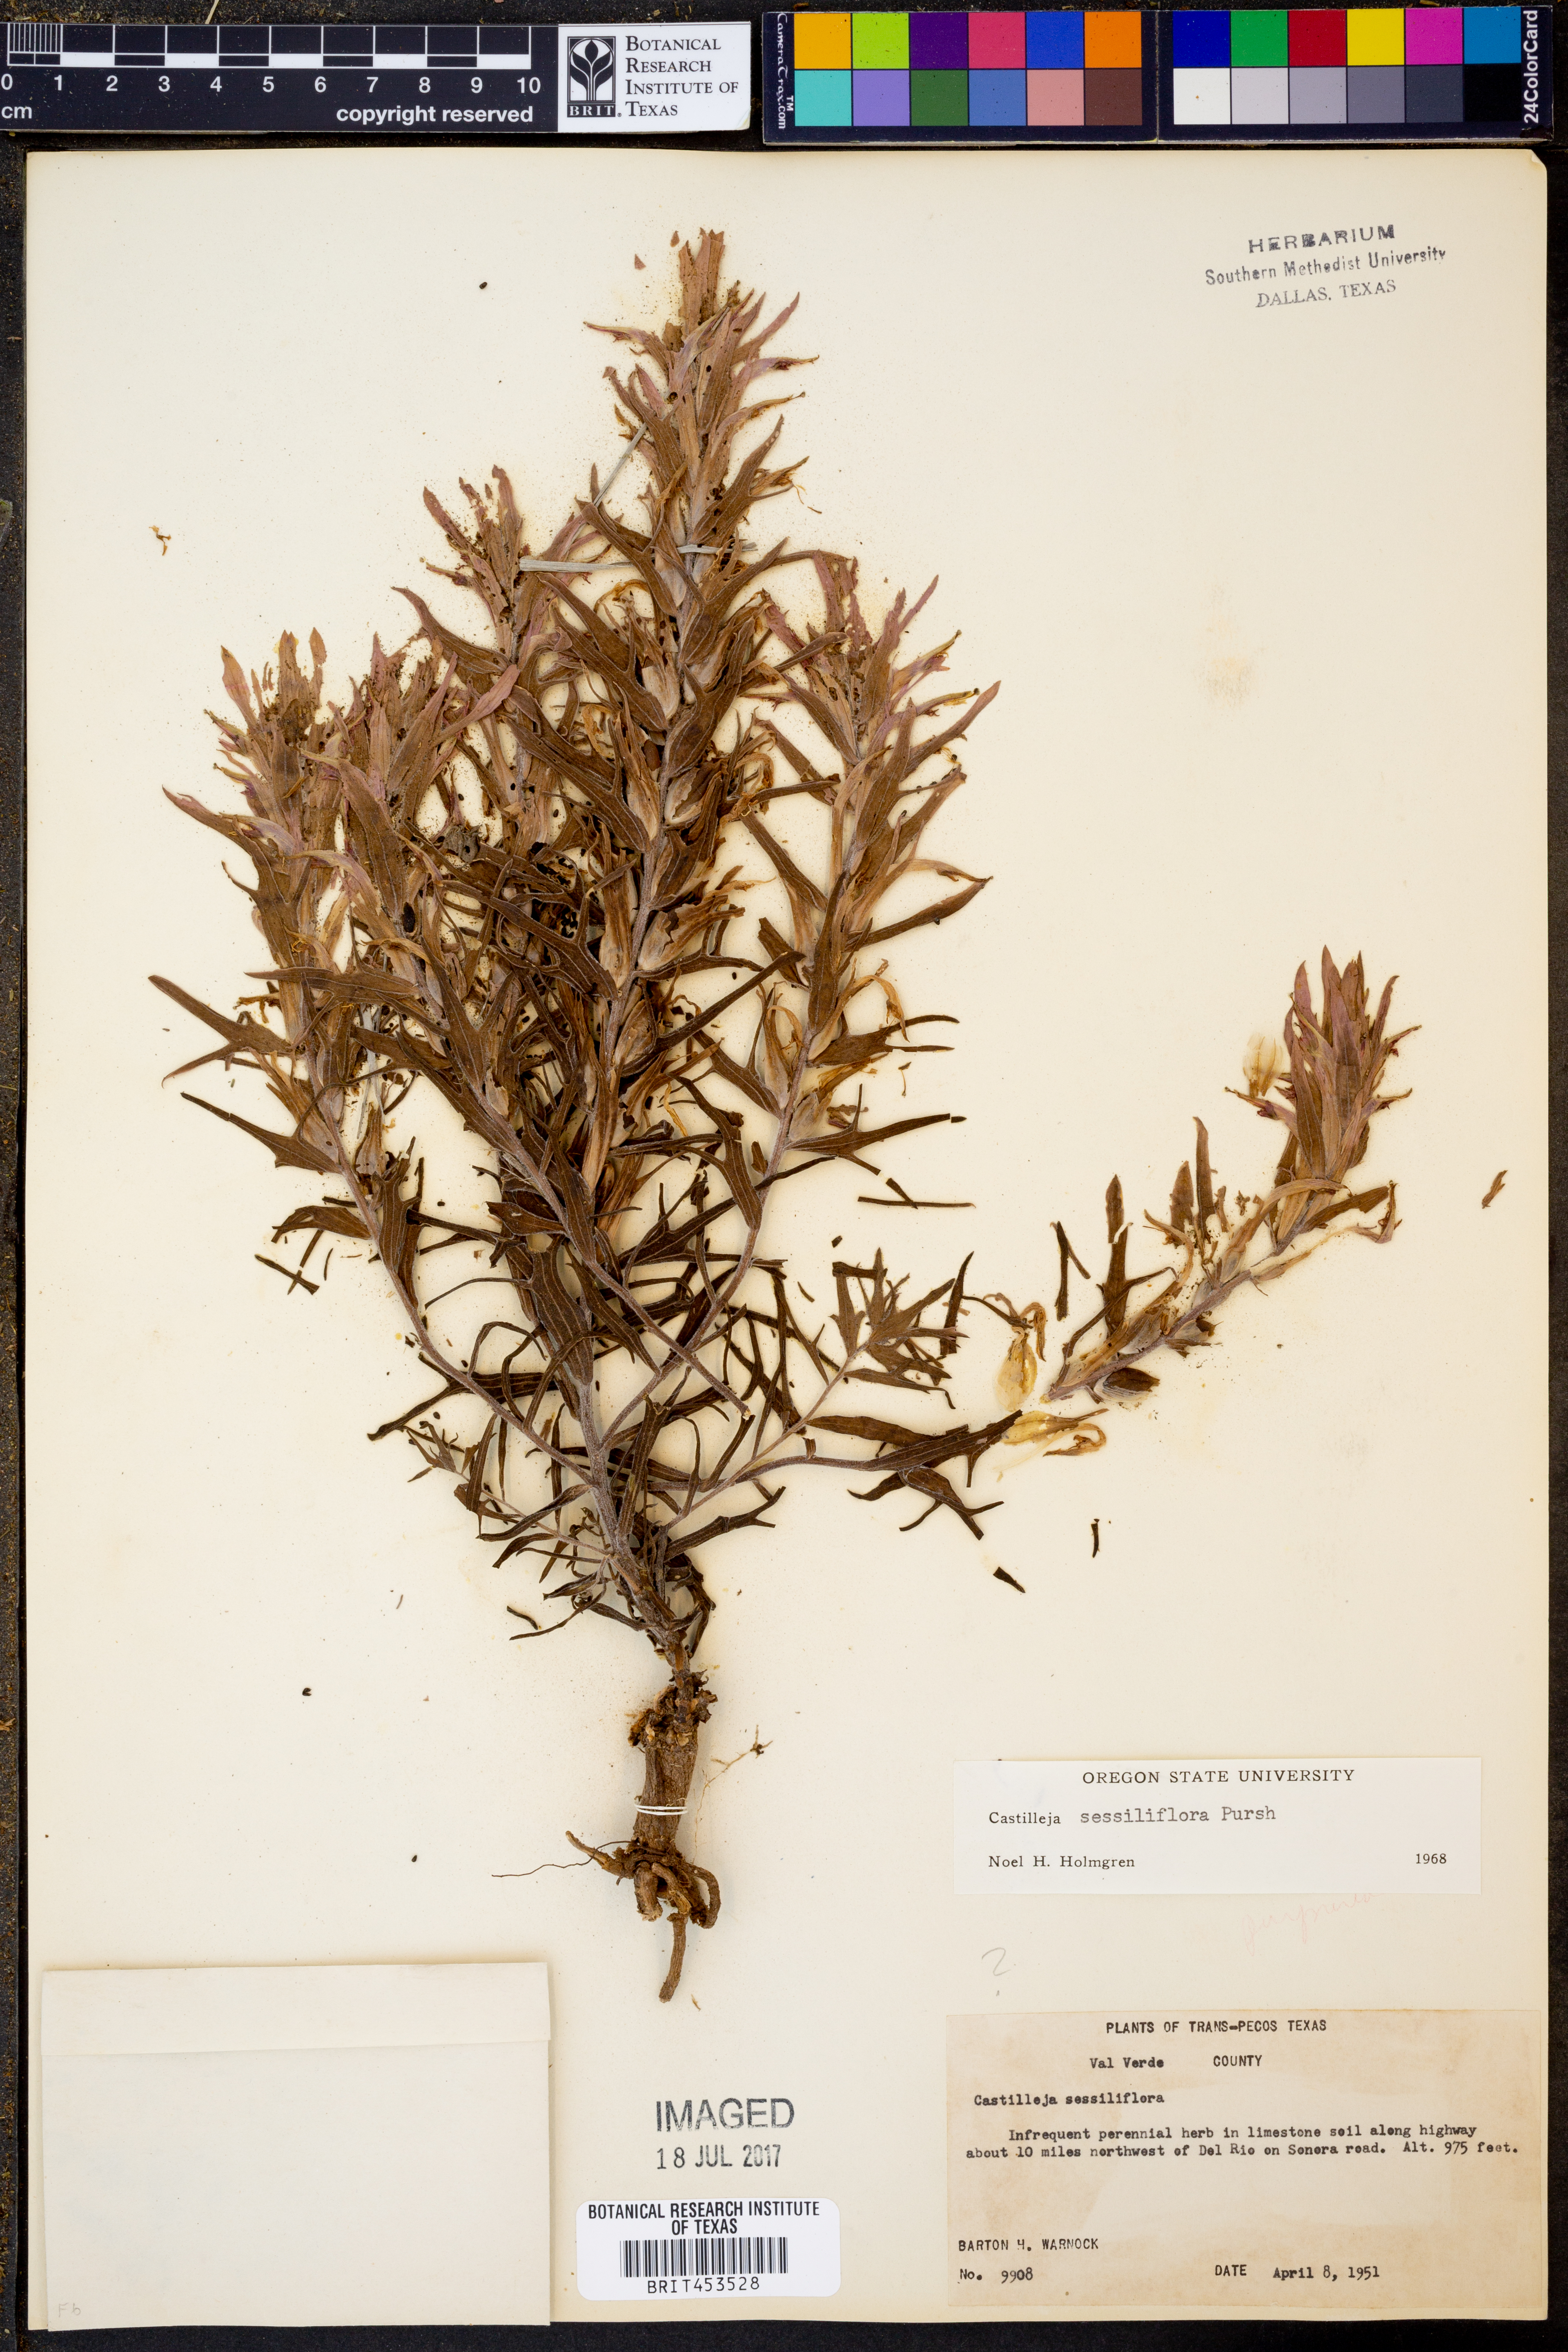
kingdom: Plantae
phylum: Tracheophyta
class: Magnoliopsida
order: Lamiales
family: Orobanchaceae
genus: Castilleja
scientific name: Castilleja sessiliflora
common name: Downy paintbrush
